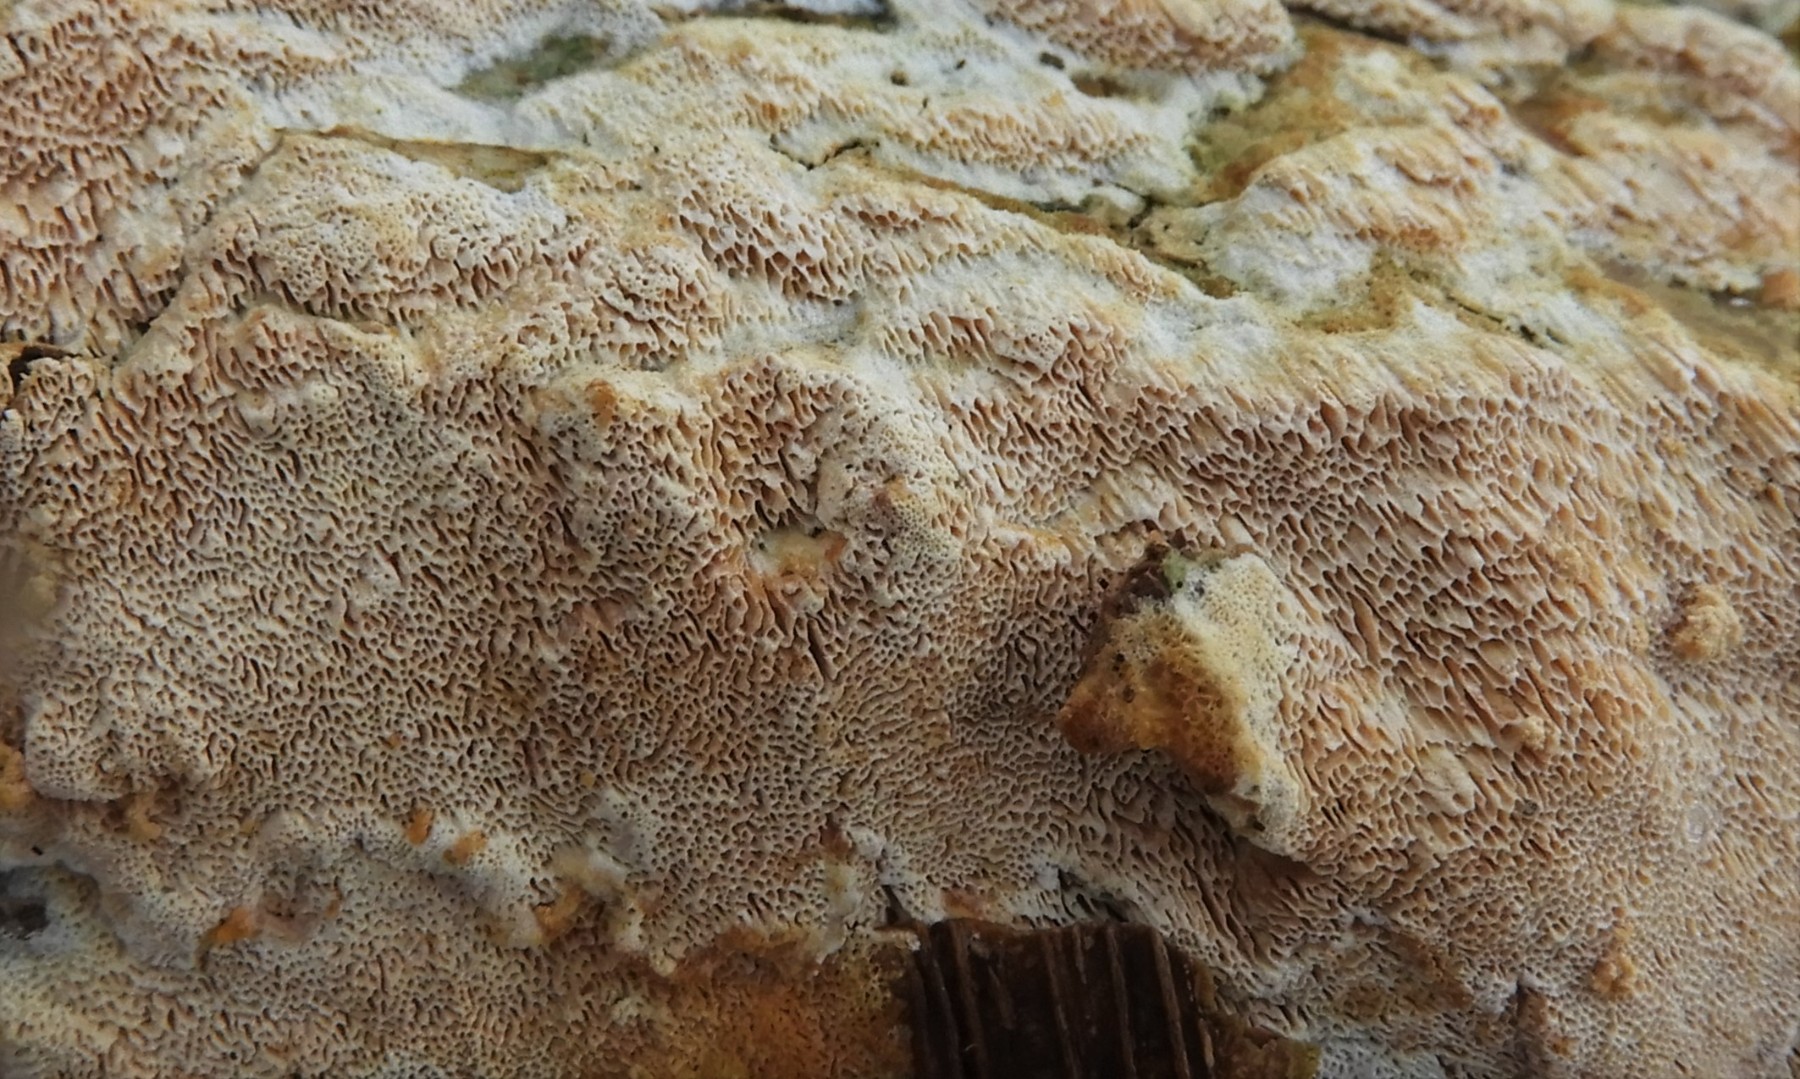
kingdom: Fungi
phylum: Basidiomycota
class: Agaricomycetes
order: Hymenochaetales
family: Schizoporaceae
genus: Xylodon
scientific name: Xylodon
